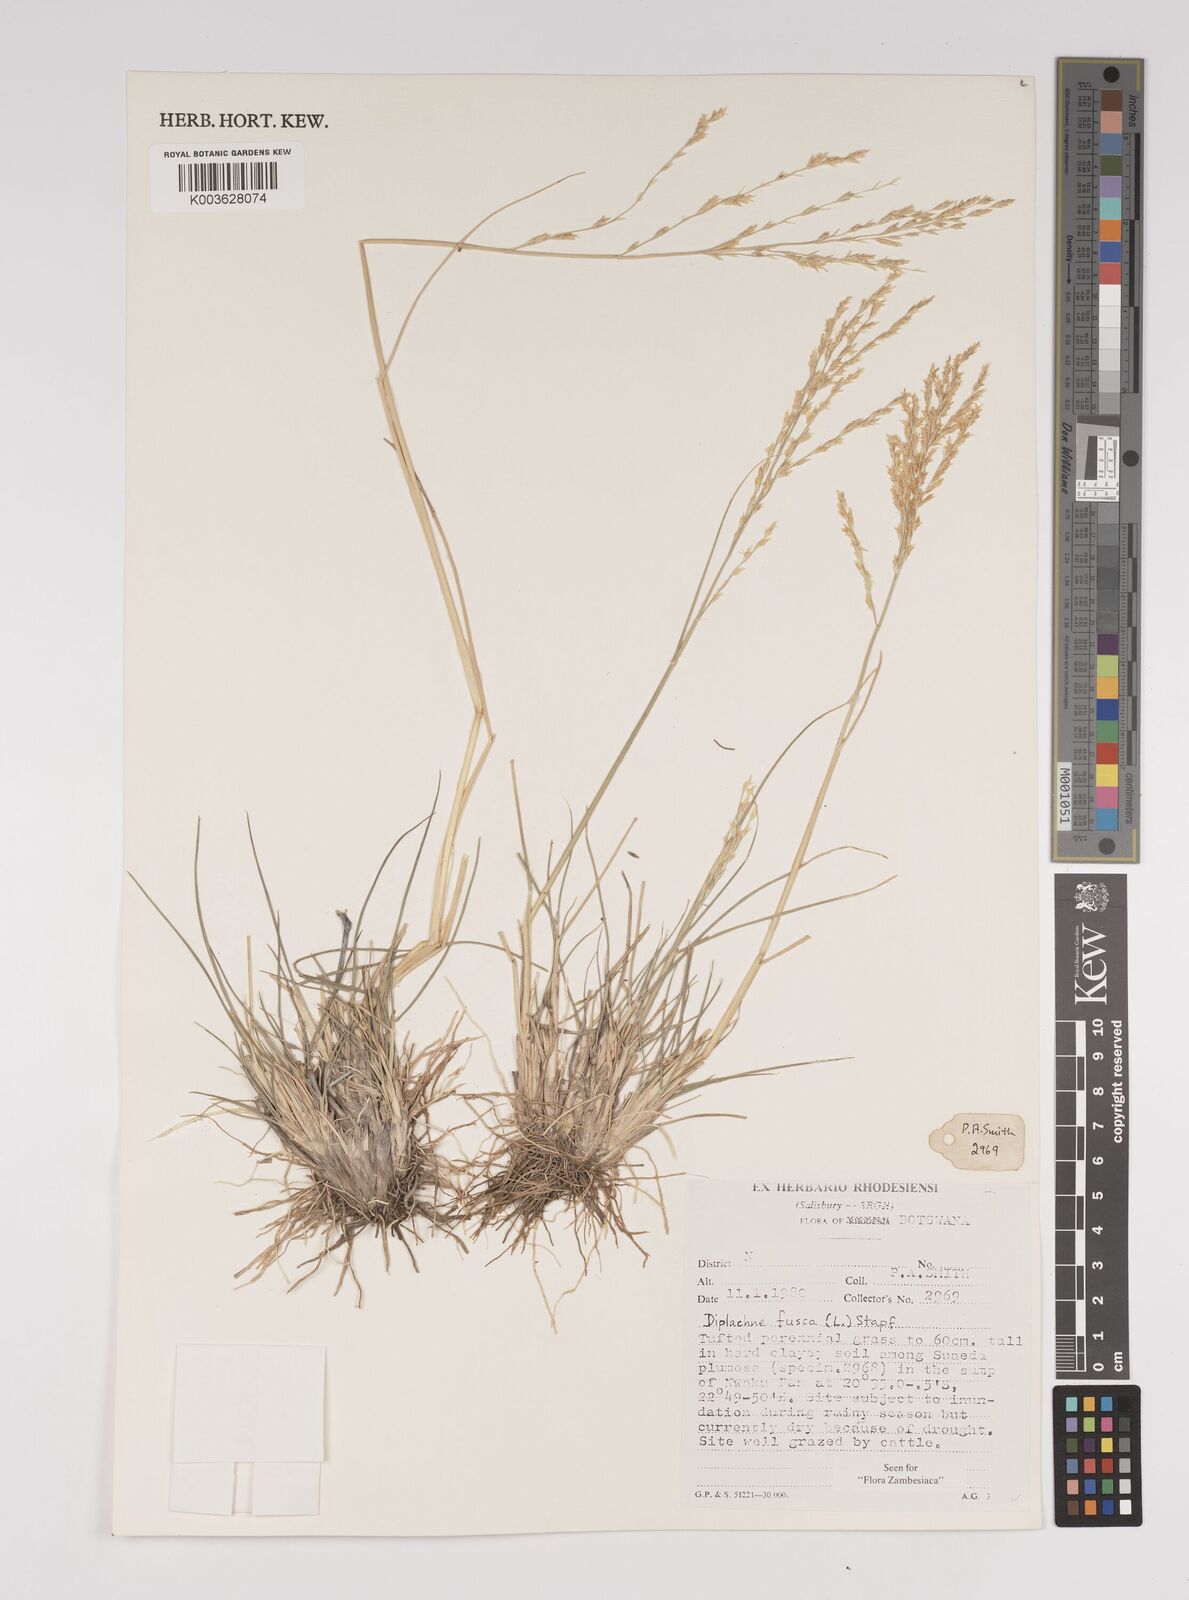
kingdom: Plantae
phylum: Tracheophyta
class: Liliopsida
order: Poales
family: Poaceae
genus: Diplachne
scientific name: Diplachne fusca
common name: Brown beetle grass
